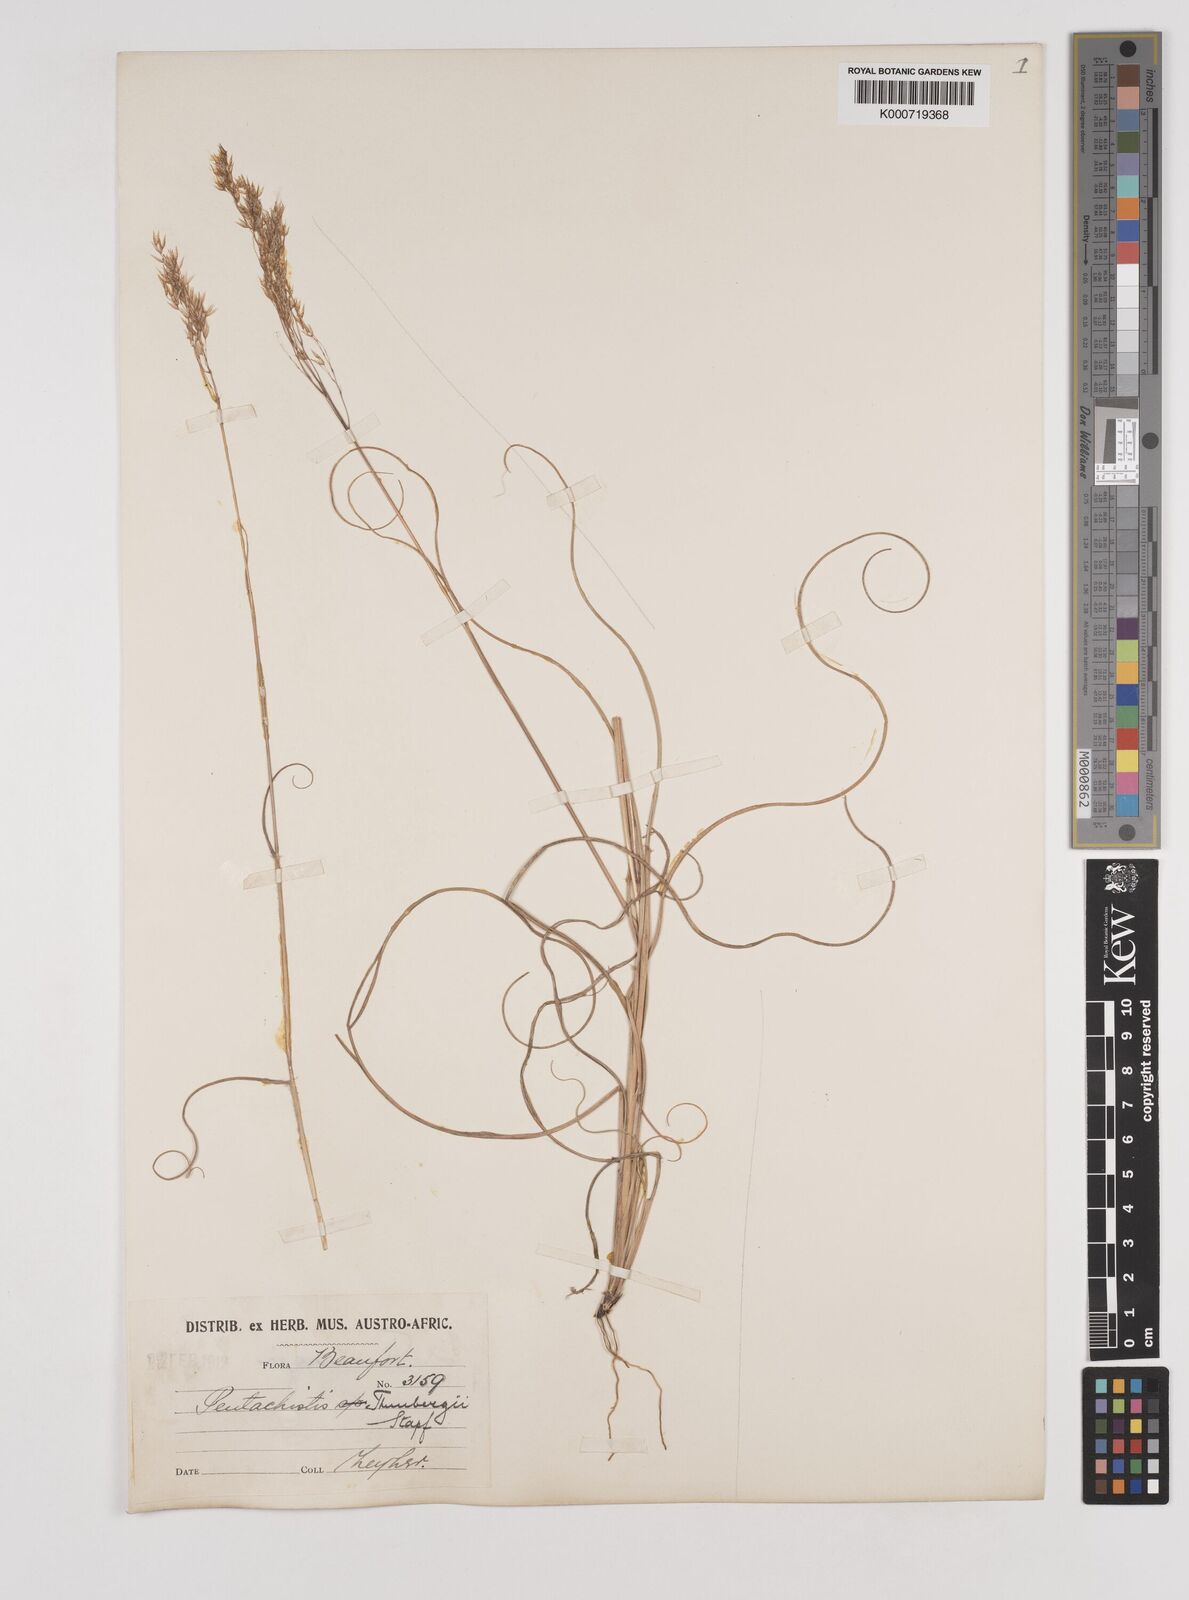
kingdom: Plantae
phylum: Tracheophyta
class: Liliopsida
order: Poales
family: Poaceae
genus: Pentameris
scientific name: Pentameris triseta
